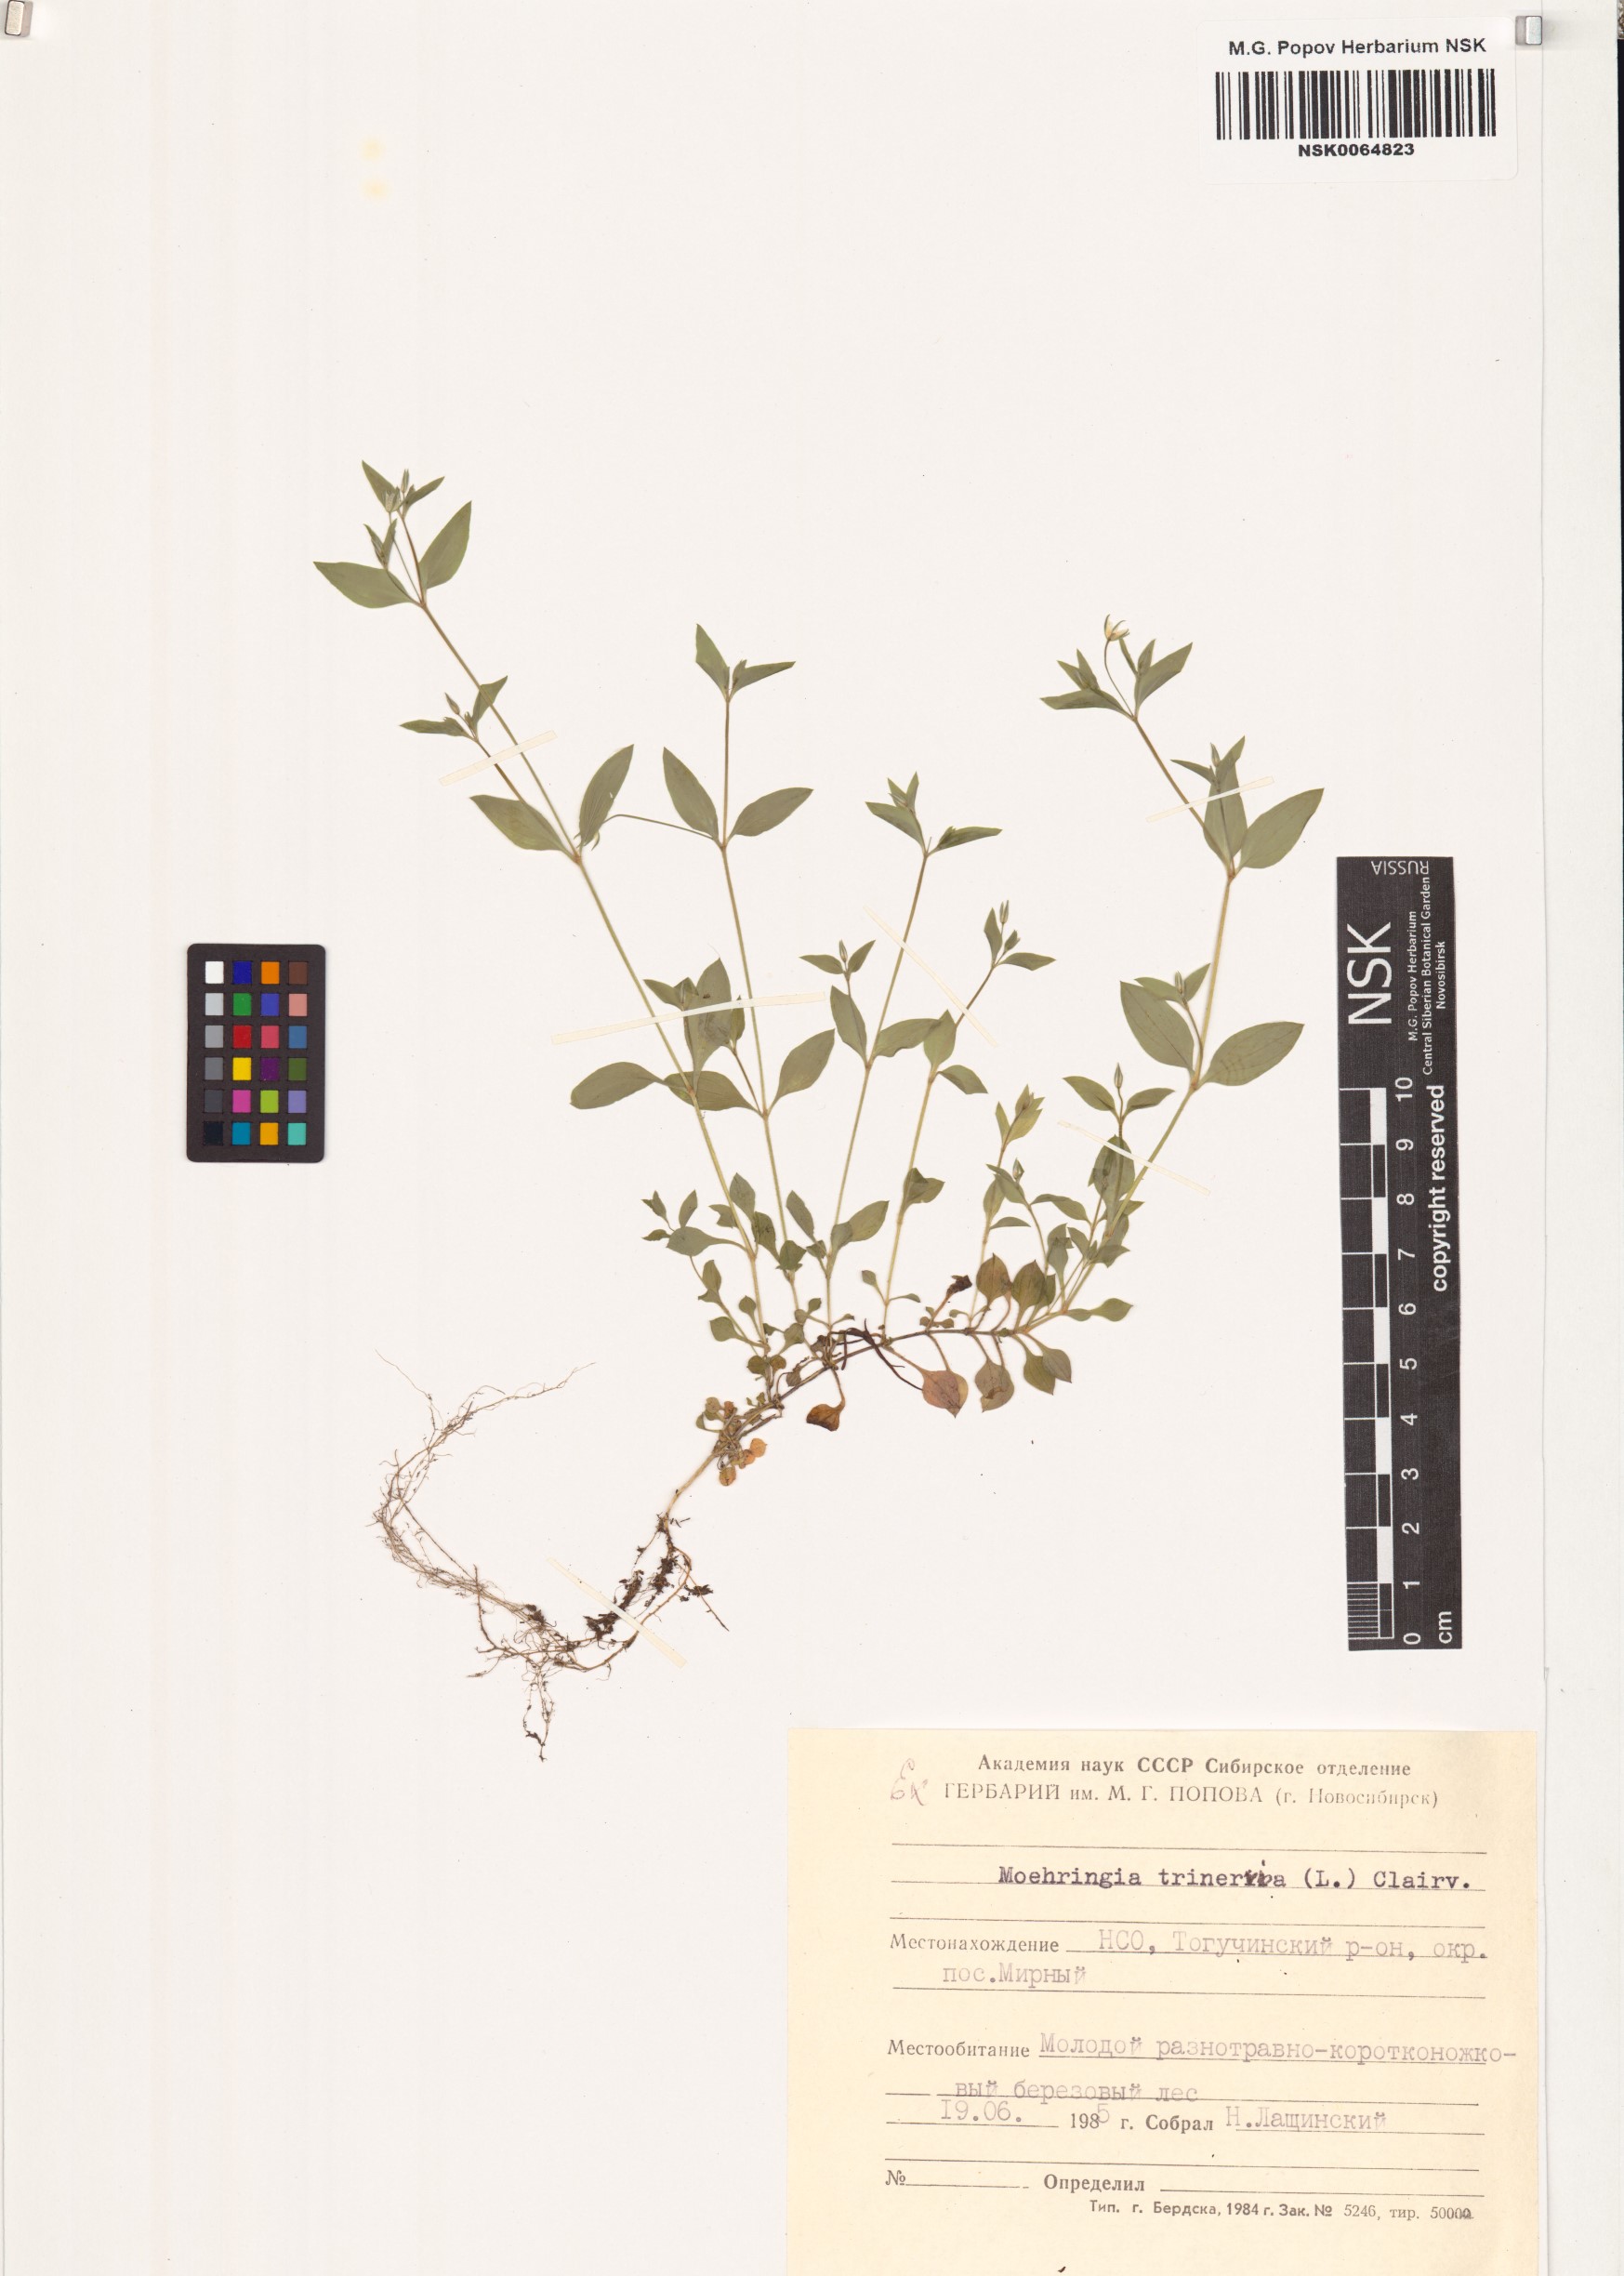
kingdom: Plantae
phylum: Tracheophyta
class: Magnoliopsida
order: Caryophyllales
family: Caryophyllaceae
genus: Moehringia
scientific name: Moehringia trinervia
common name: Three-nerved sandwort
